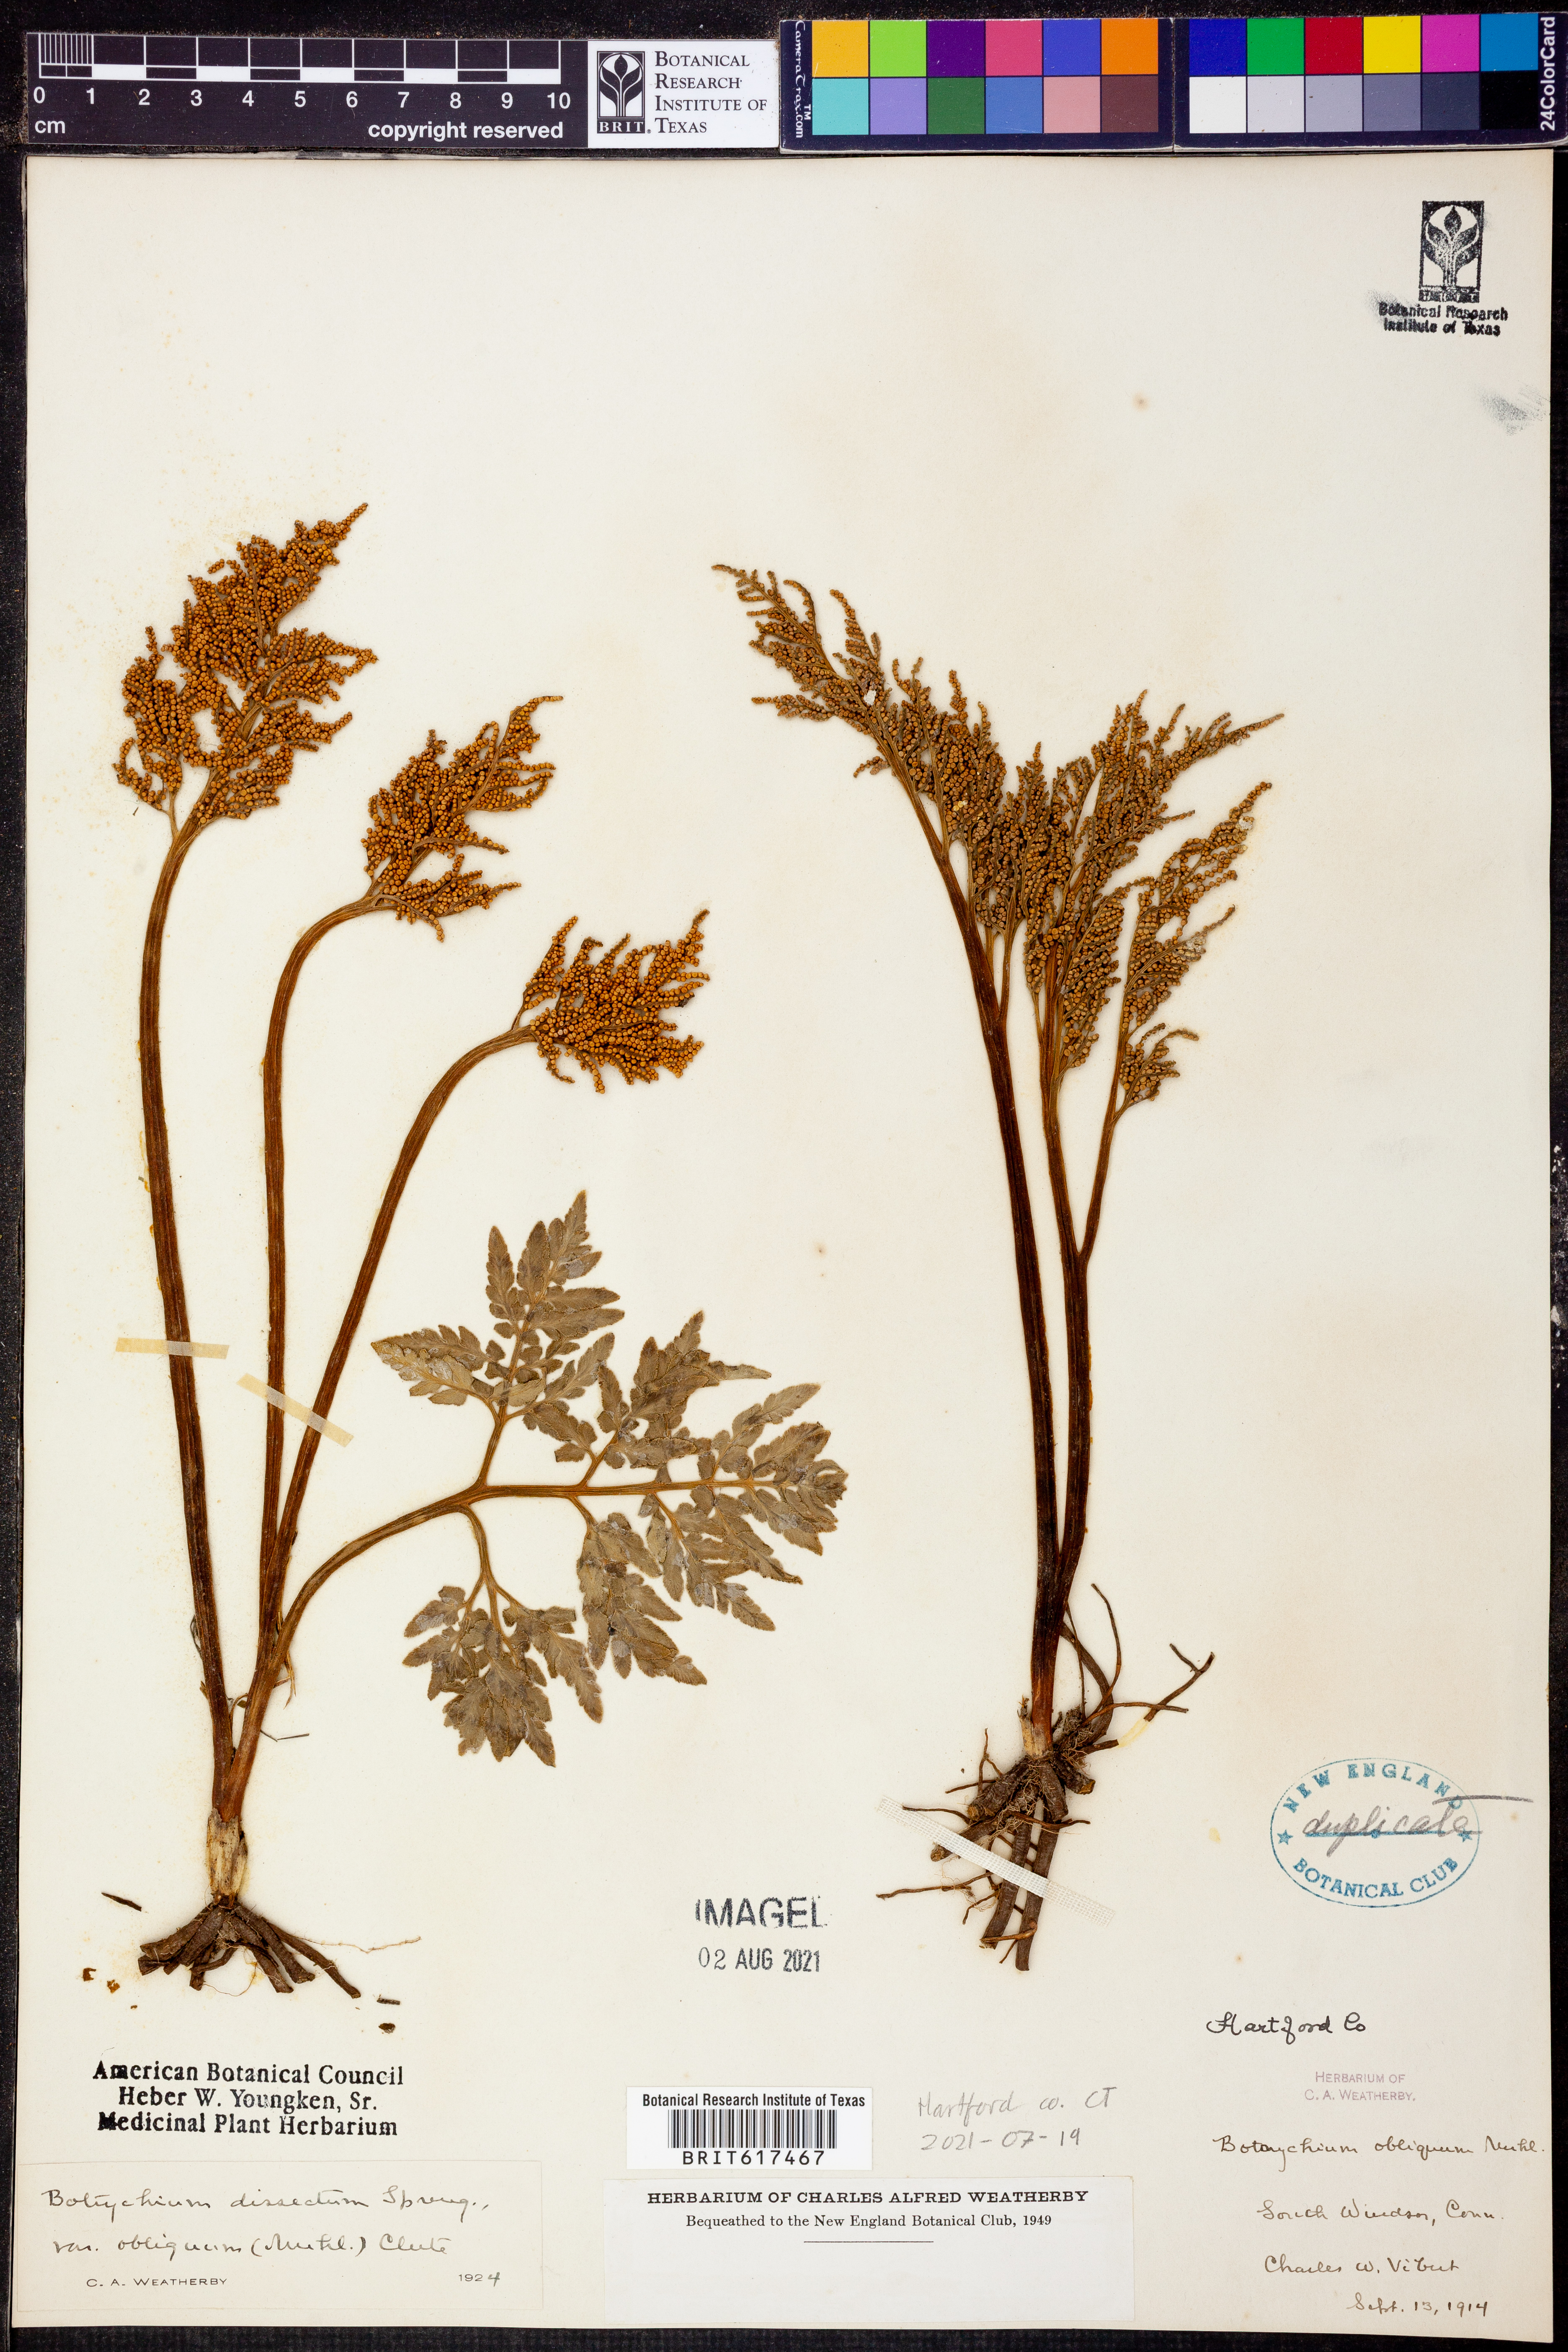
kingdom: Plantae
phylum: Tracheophyta
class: Polypodiopsida
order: Ophioglossales
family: Ophioglossaceae
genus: Sceptridium
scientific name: Sceptridium dissectum
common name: Cut-leaved grapefern
